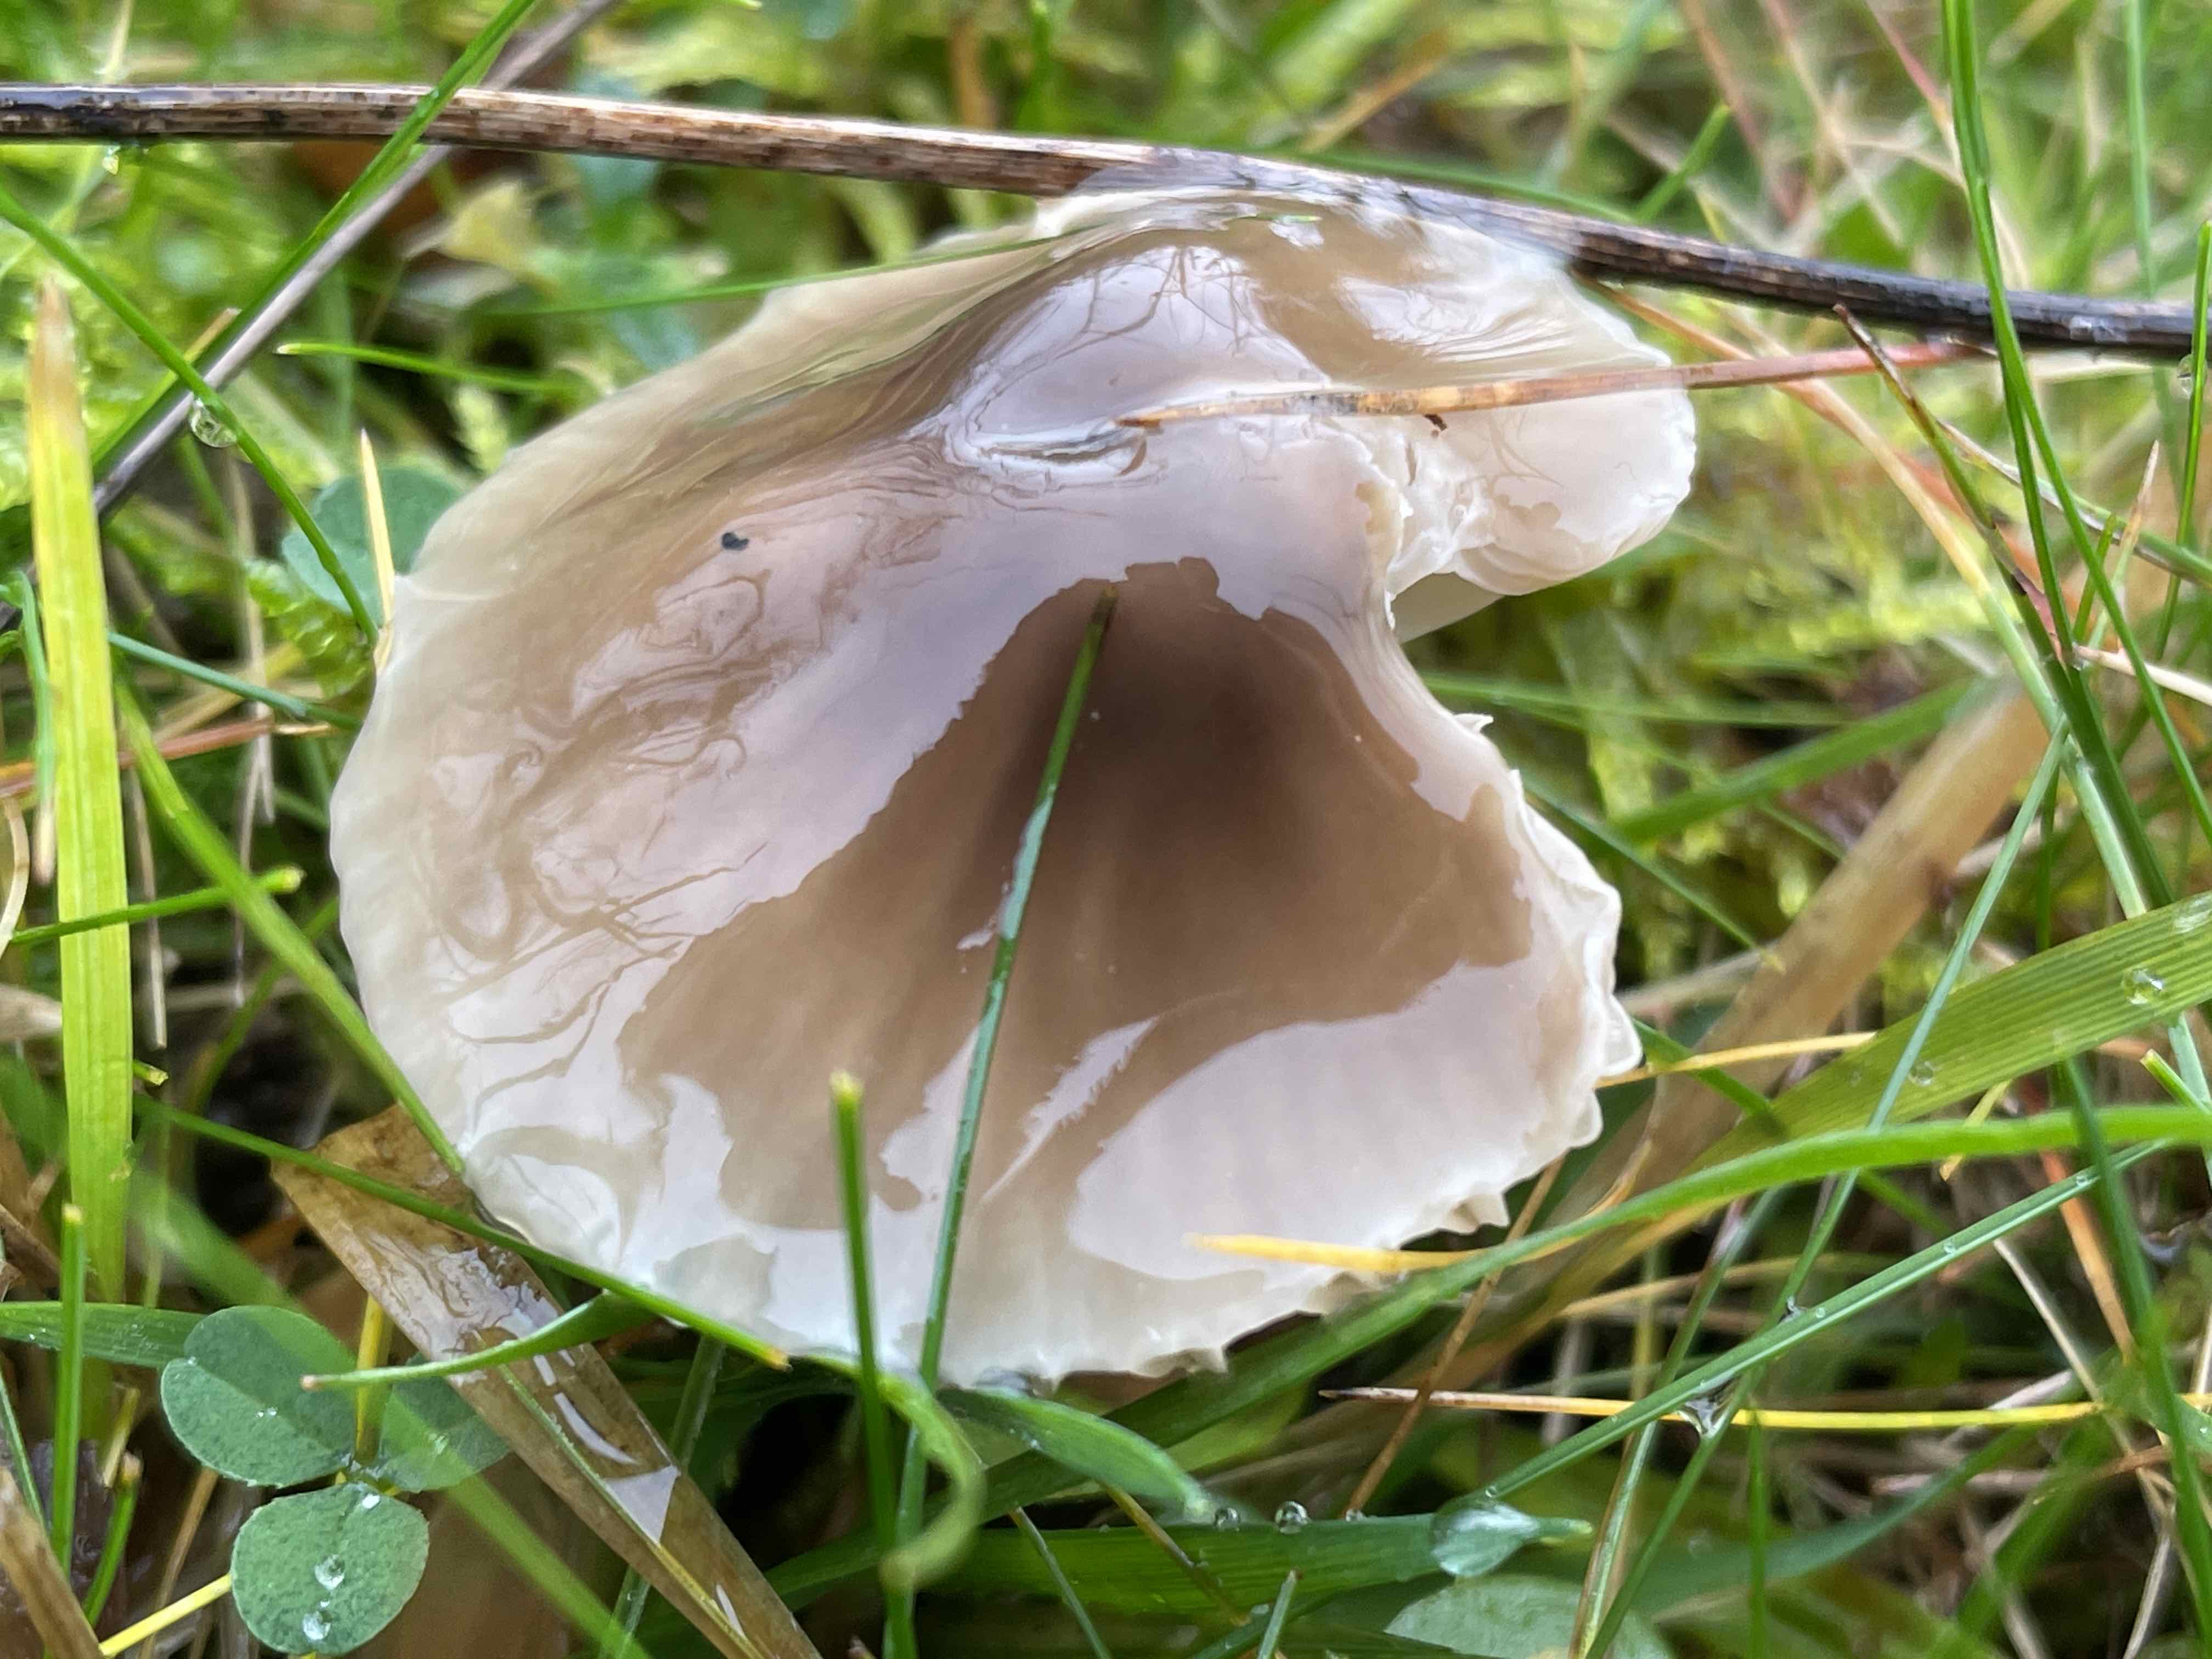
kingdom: Fungi
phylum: Basidiomycota
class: Agaricomycetes
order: Agaricales
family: Hygrophoraceae
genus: Gliophorus
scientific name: Gliophorus irrigatus
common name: slimet vokshat
